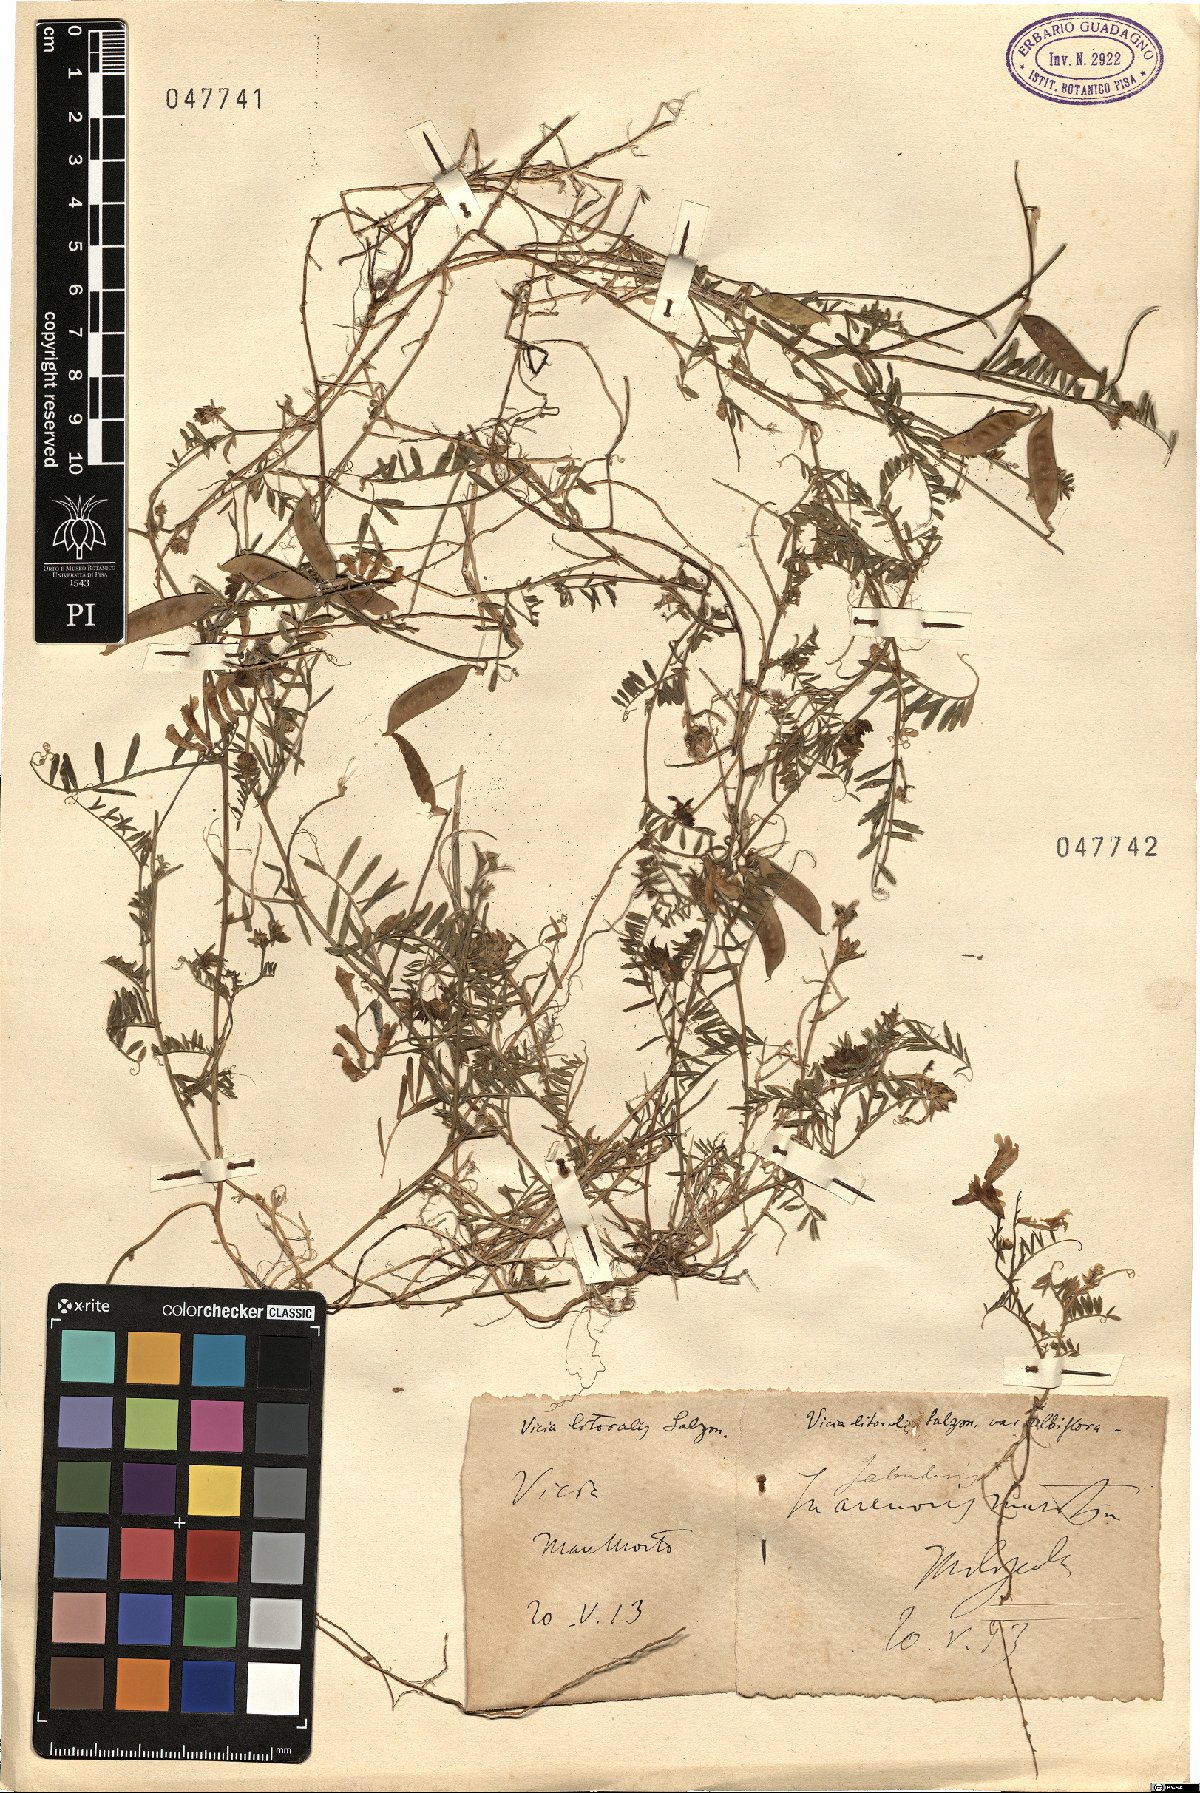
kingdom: Plantae
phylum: Tracheophyta
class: Magnoliopsida
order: Fabales
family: Fabaceae
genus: Vicia
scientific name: Vicia villosa
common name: Fodder vetch
